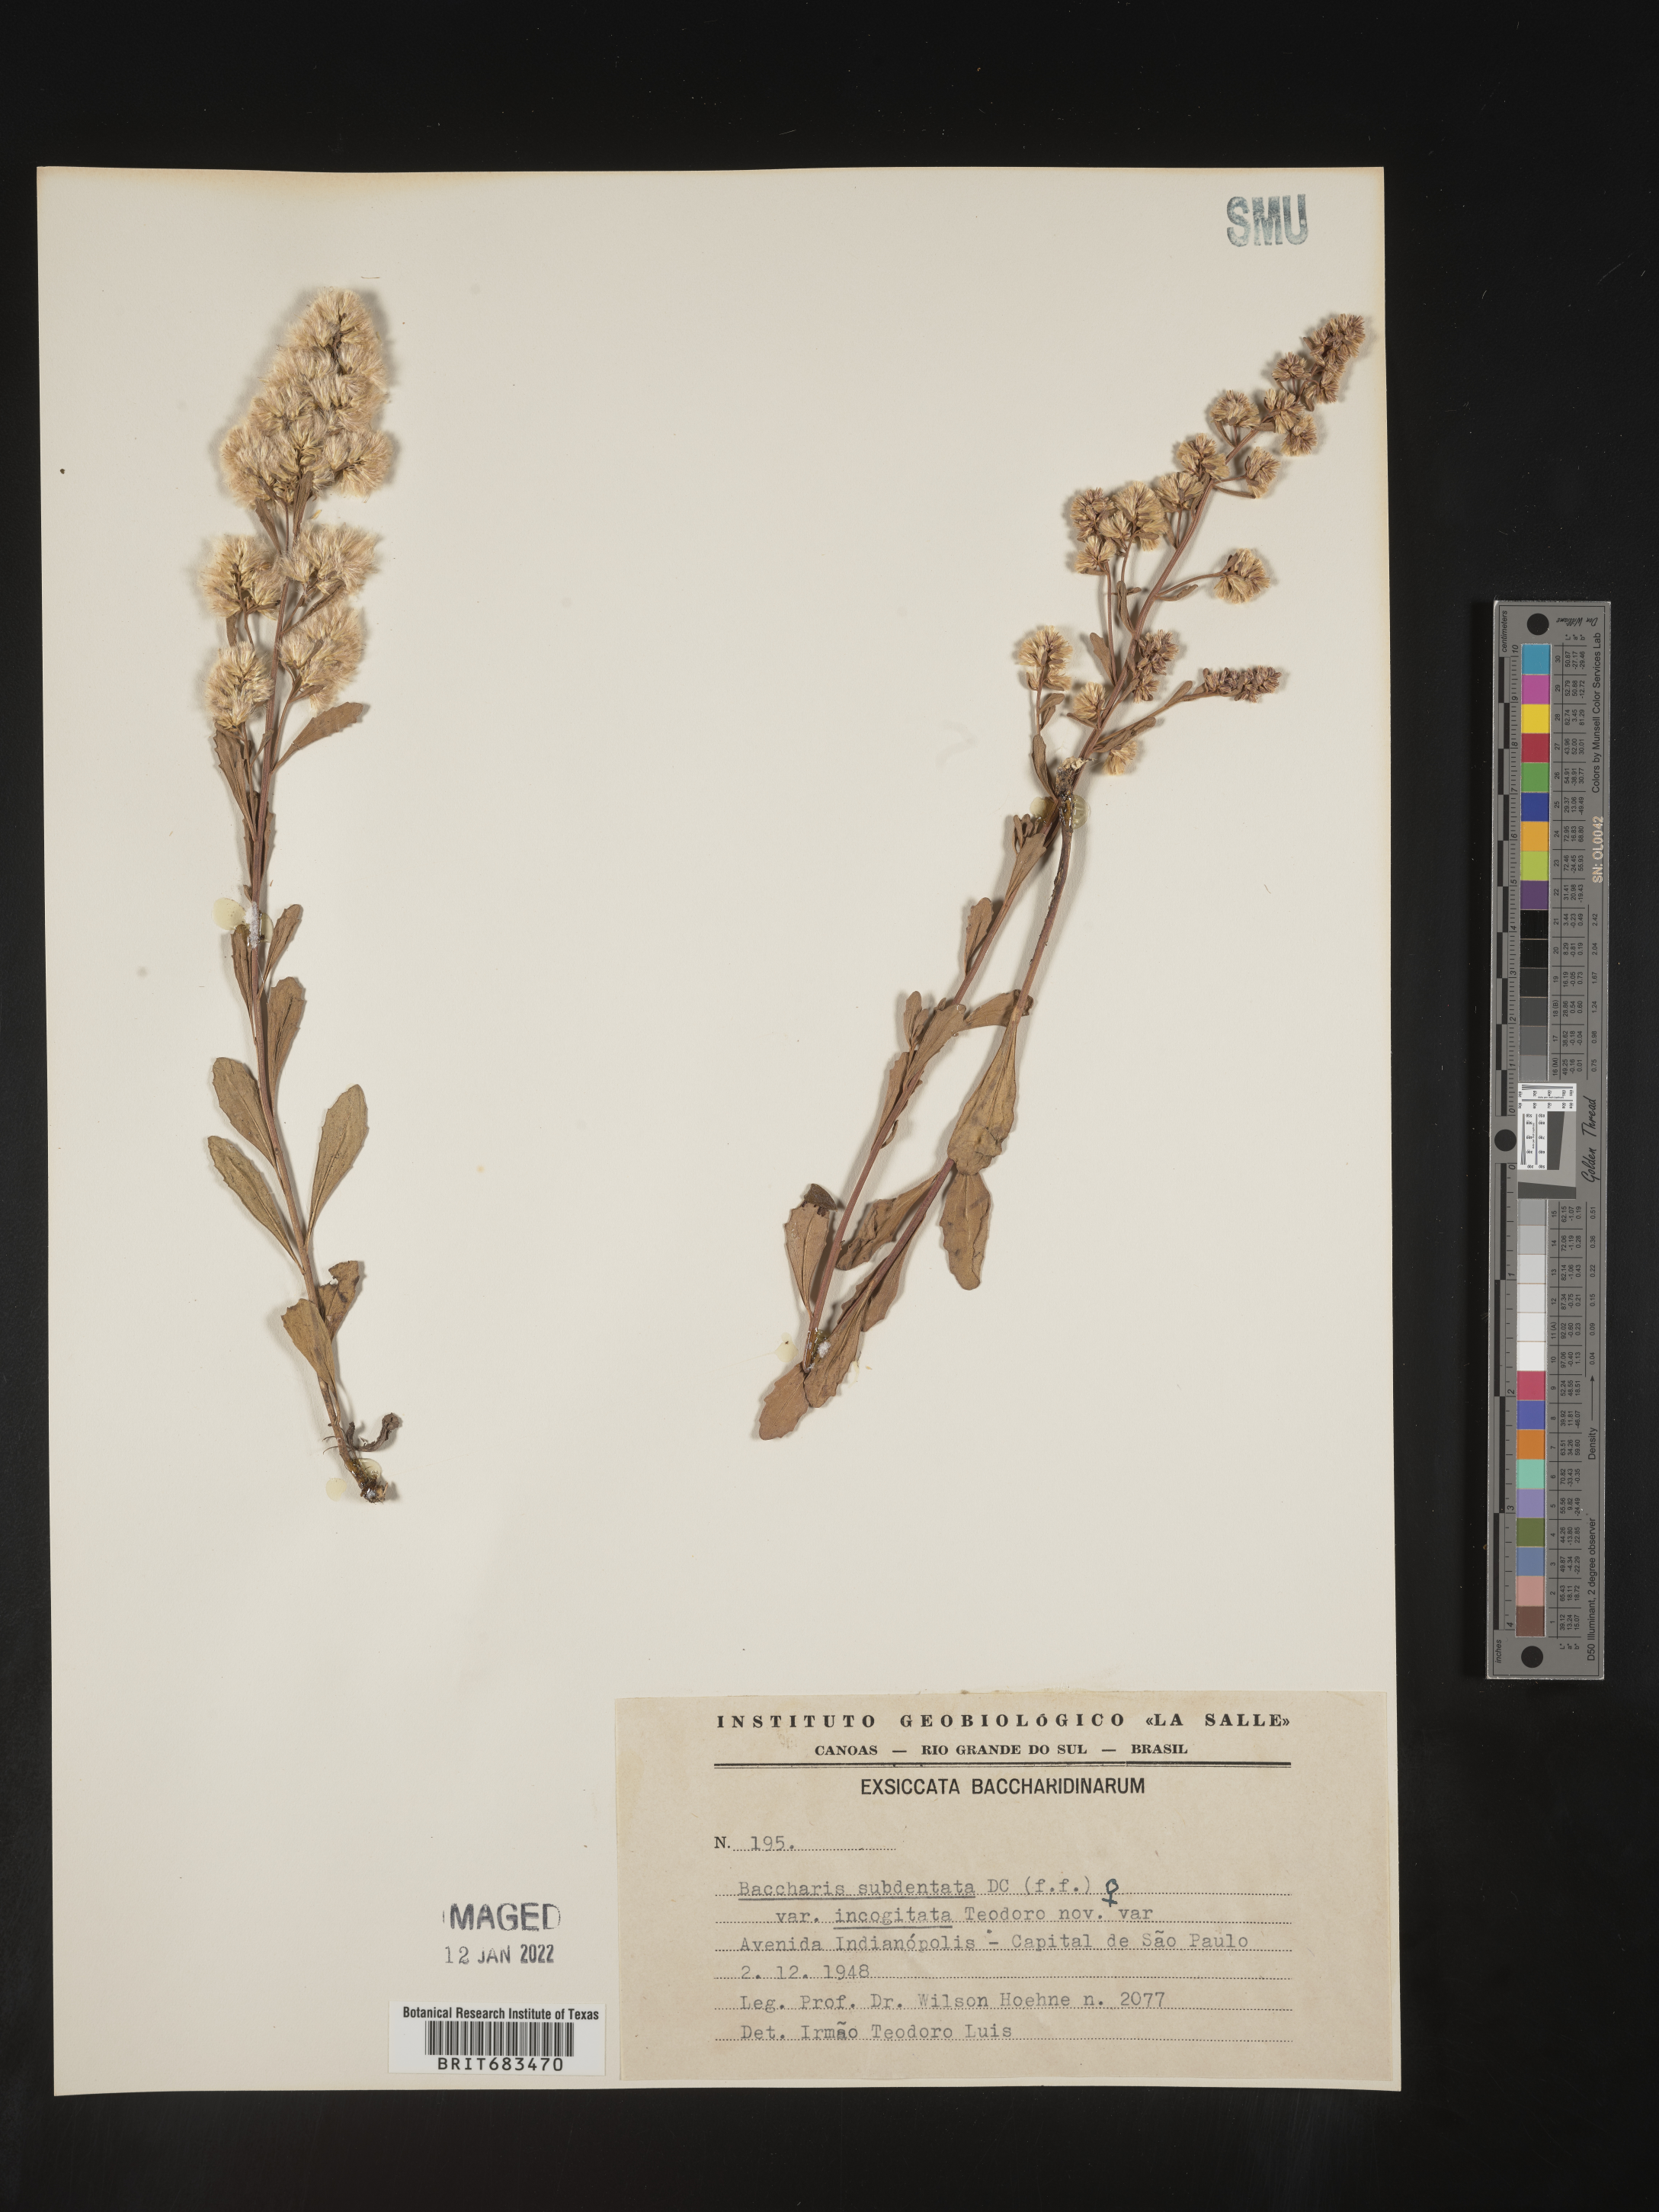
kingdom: Plantae
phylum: Tracheophyta
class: Magnoliopsida
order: Asterales
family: Asteraceae
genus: Baccharis
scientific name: Baccharis
